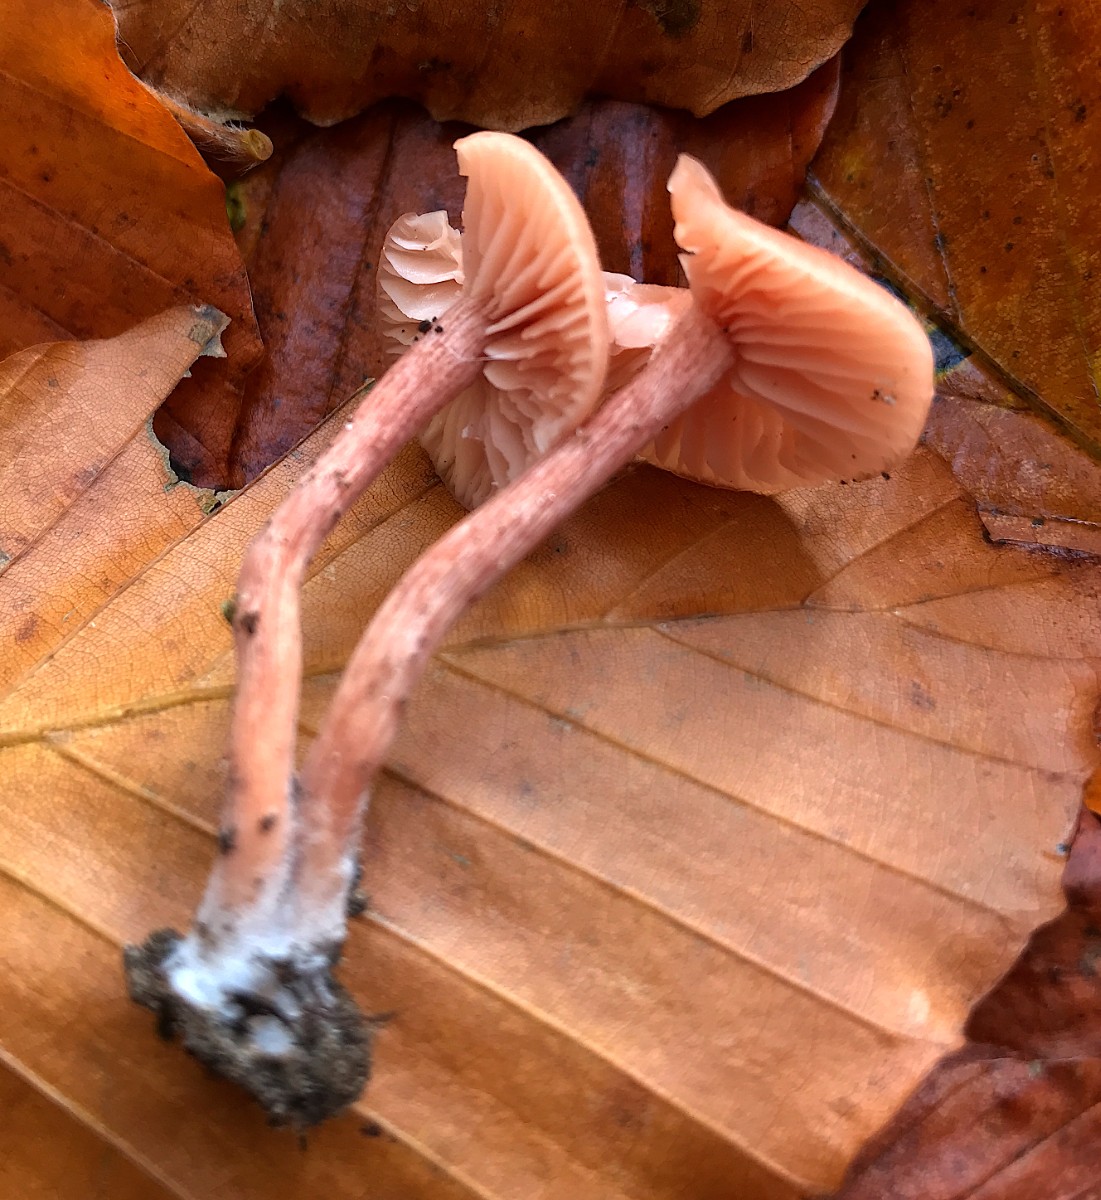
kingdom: Fungi
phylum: Basidiomycota
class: Agaricomycetes
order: Agaricales
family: Hydnangiaceae
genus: Laccaria
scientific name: Laccaria laccata
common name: rød ametysthat
